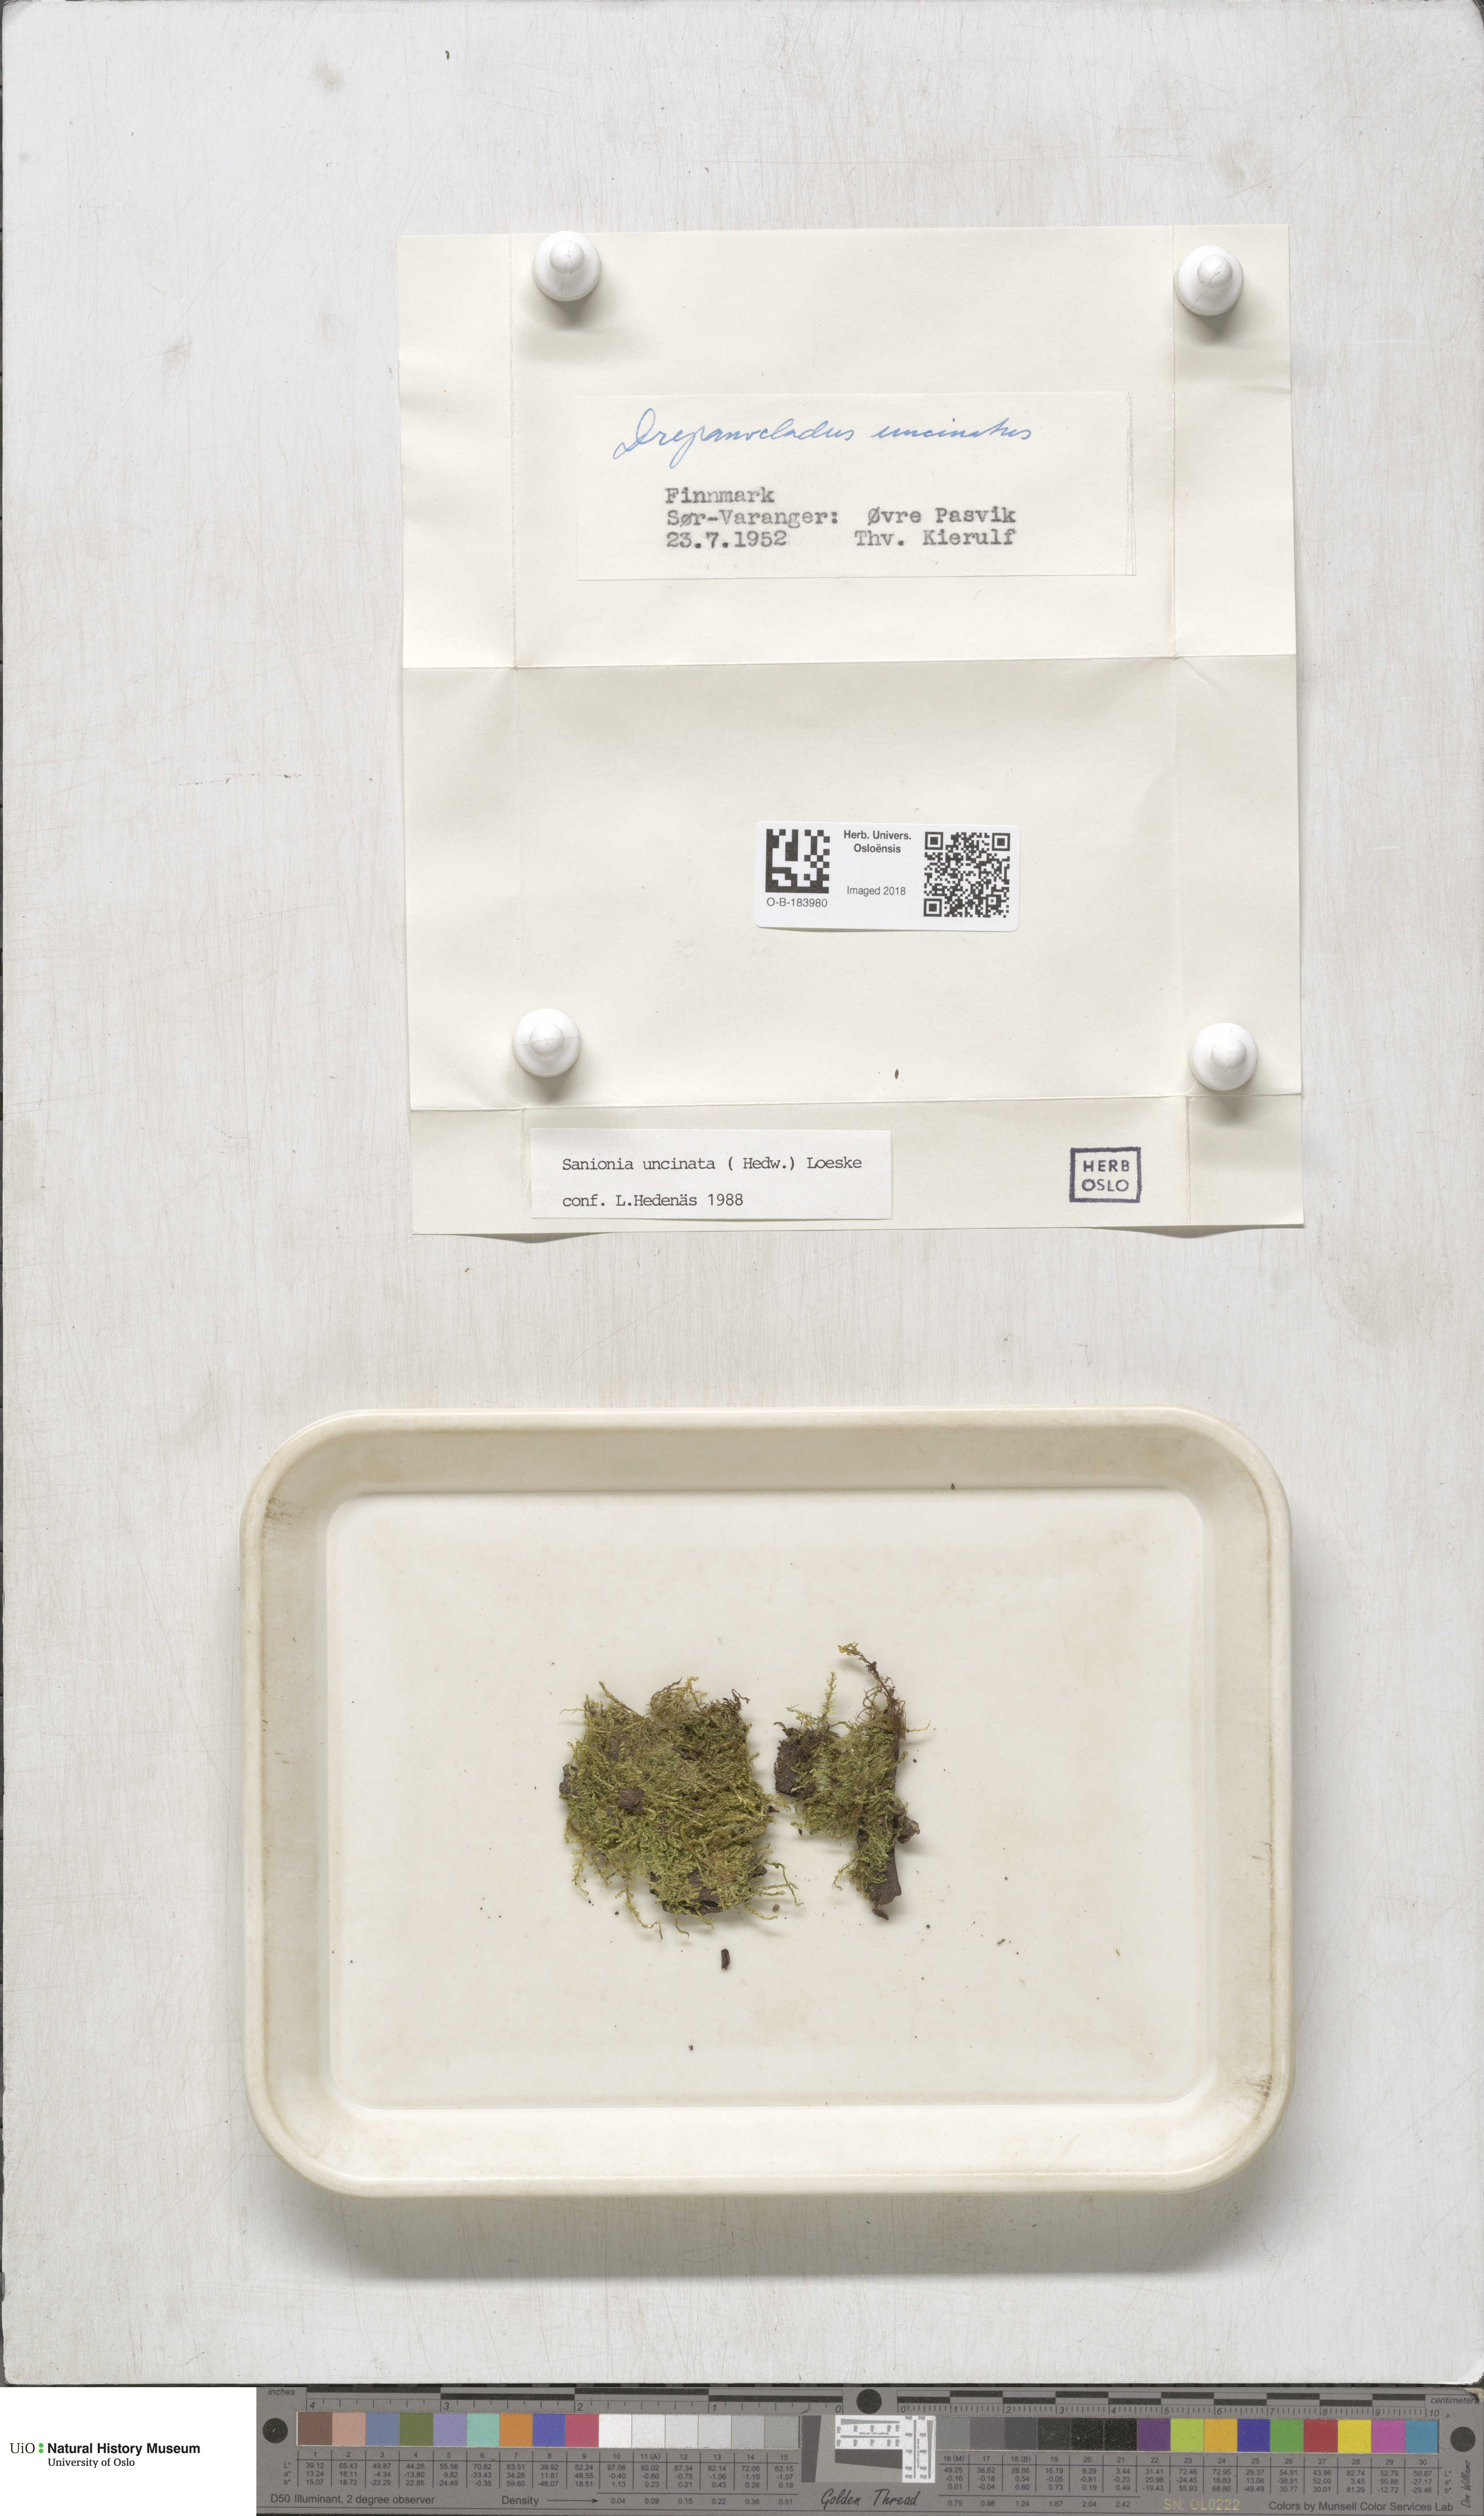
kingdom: Plantae
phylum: Bryophyta
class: Bryopsida
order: Hypnales
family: Scorpidiaceae
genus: Sanionia
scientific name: Sanionia uncinata
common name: Sickle moss
